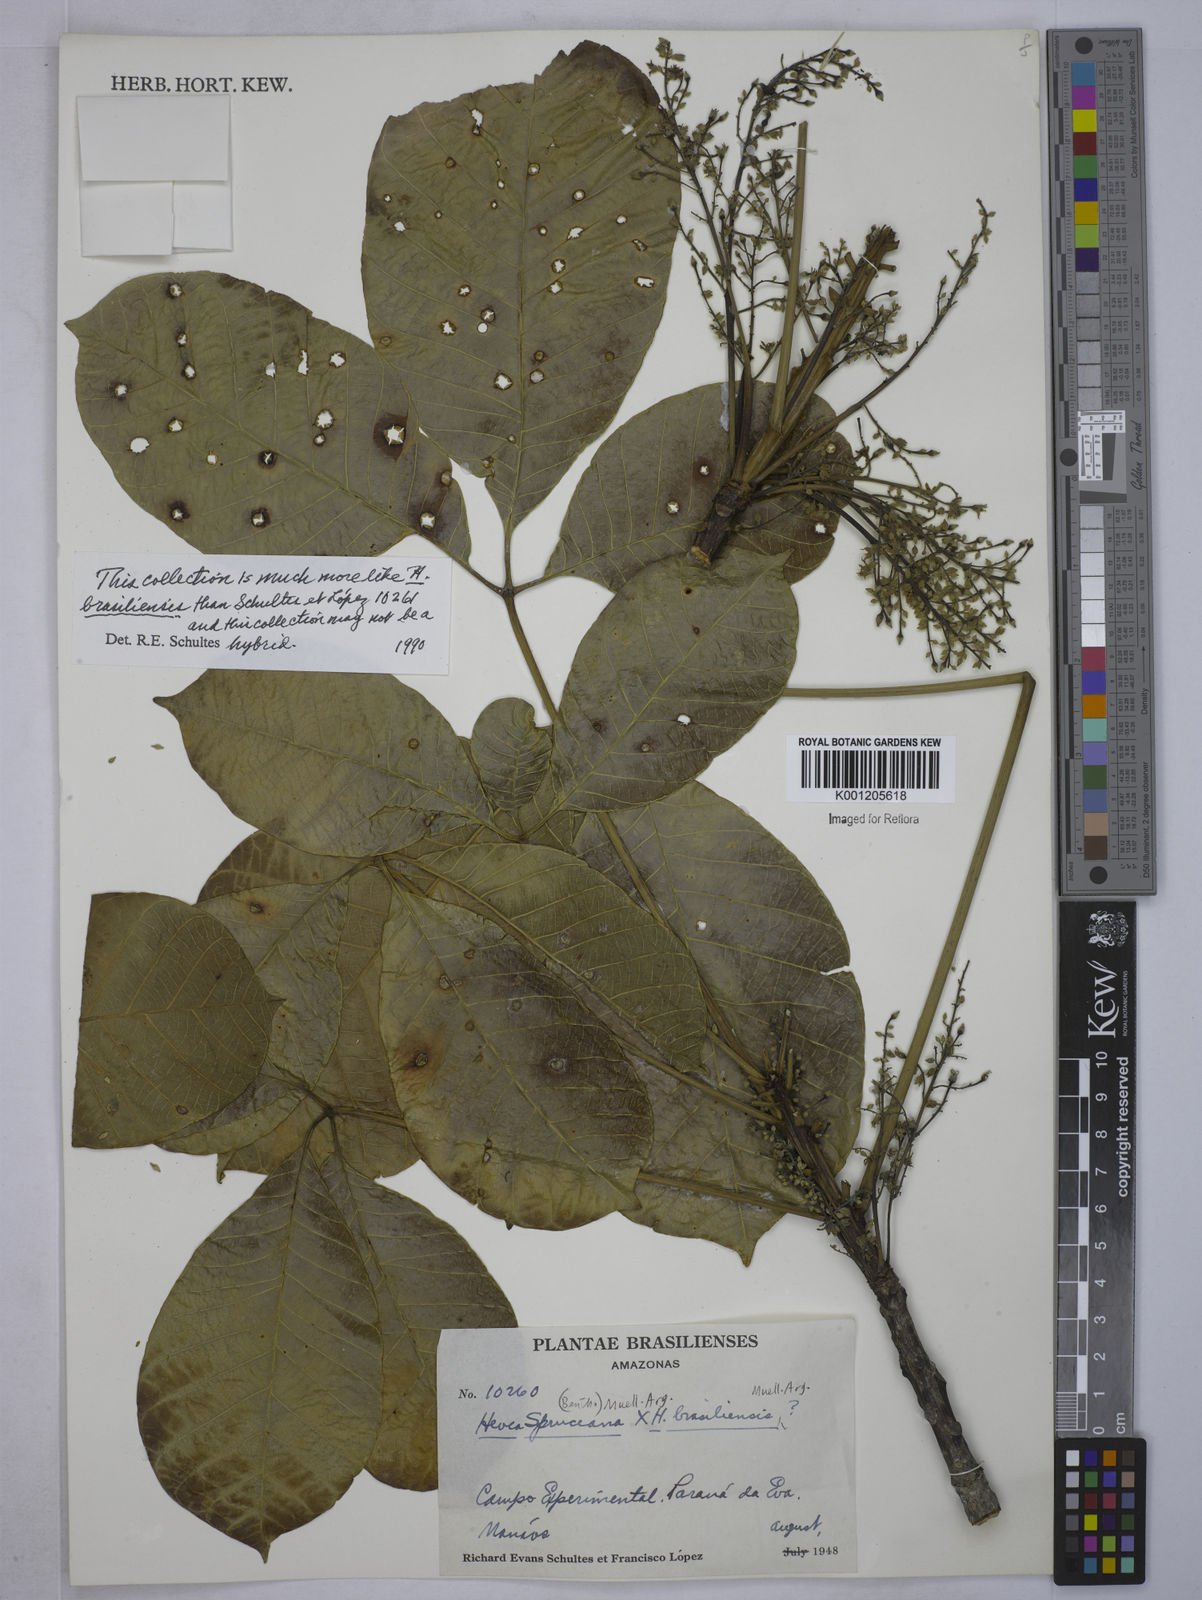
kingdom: Plantae
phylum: Tracheophyta
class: Magnoliopsida
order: Malpighiales
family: Euphorbiaceae
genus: Hevea
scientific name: Hevea
